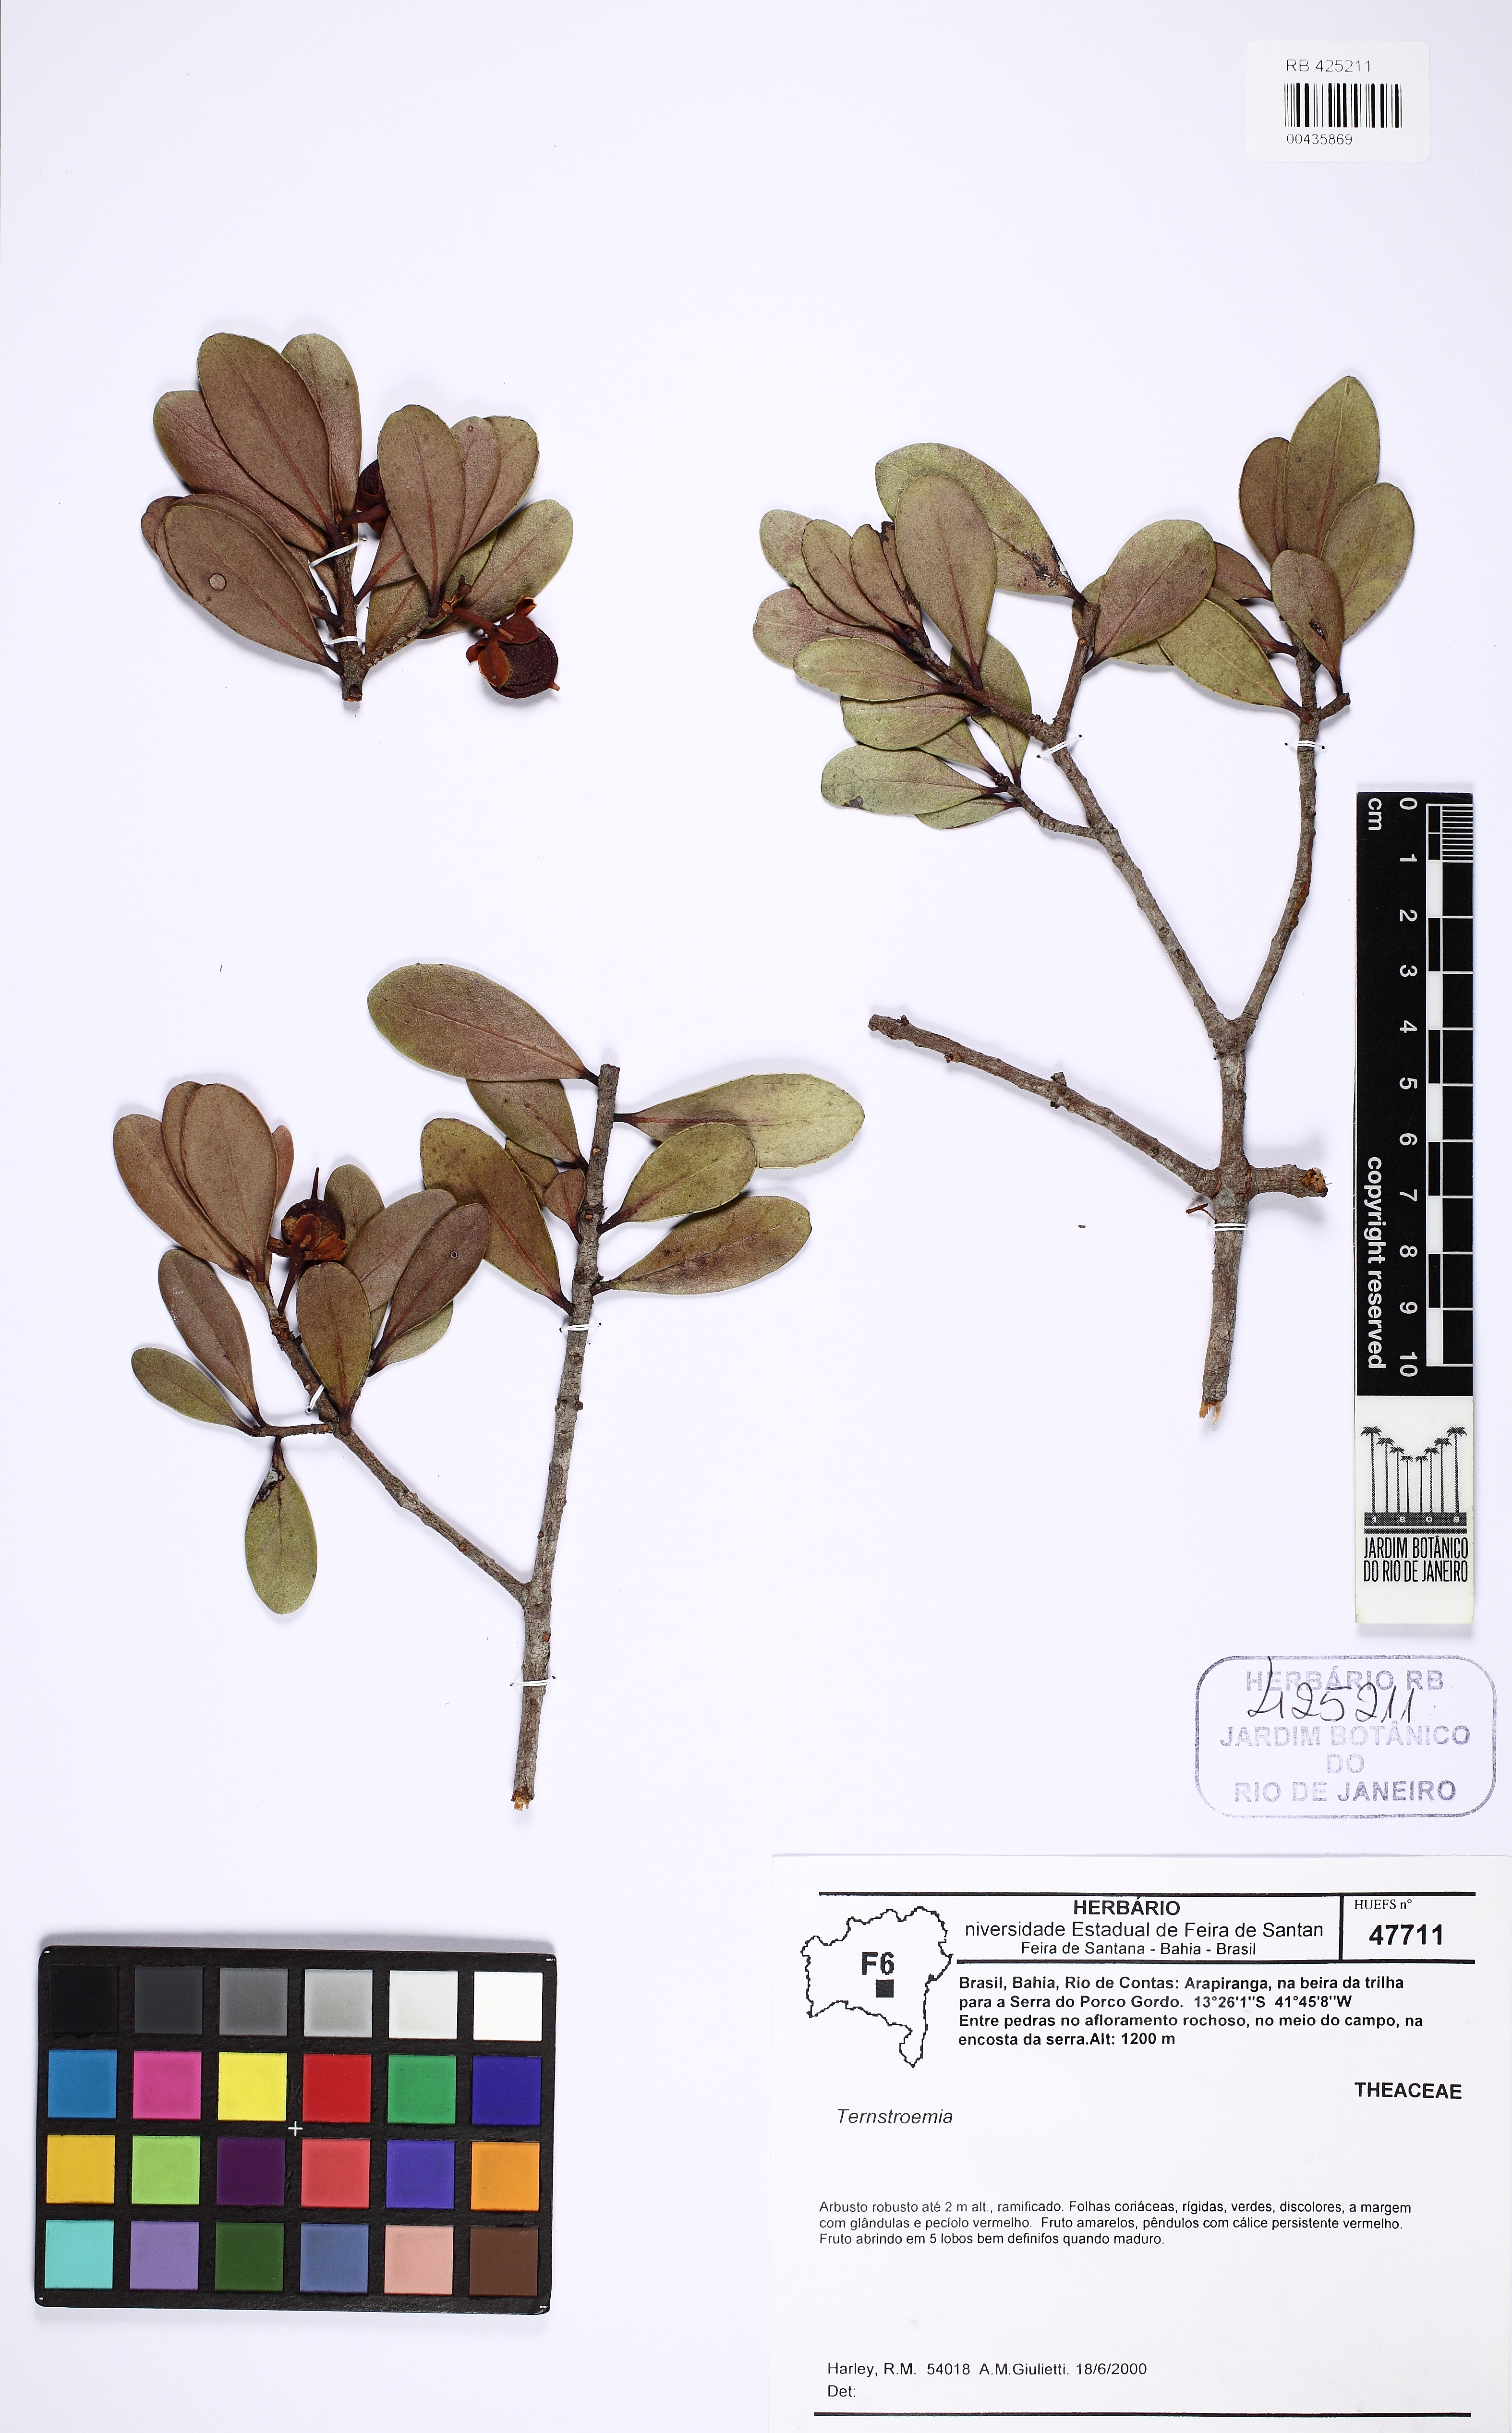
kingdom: Plantae
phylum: Tracheophyta
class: Magnoliopsida
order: Ericales
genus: Ternstroemia
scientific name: Ternstroemia
